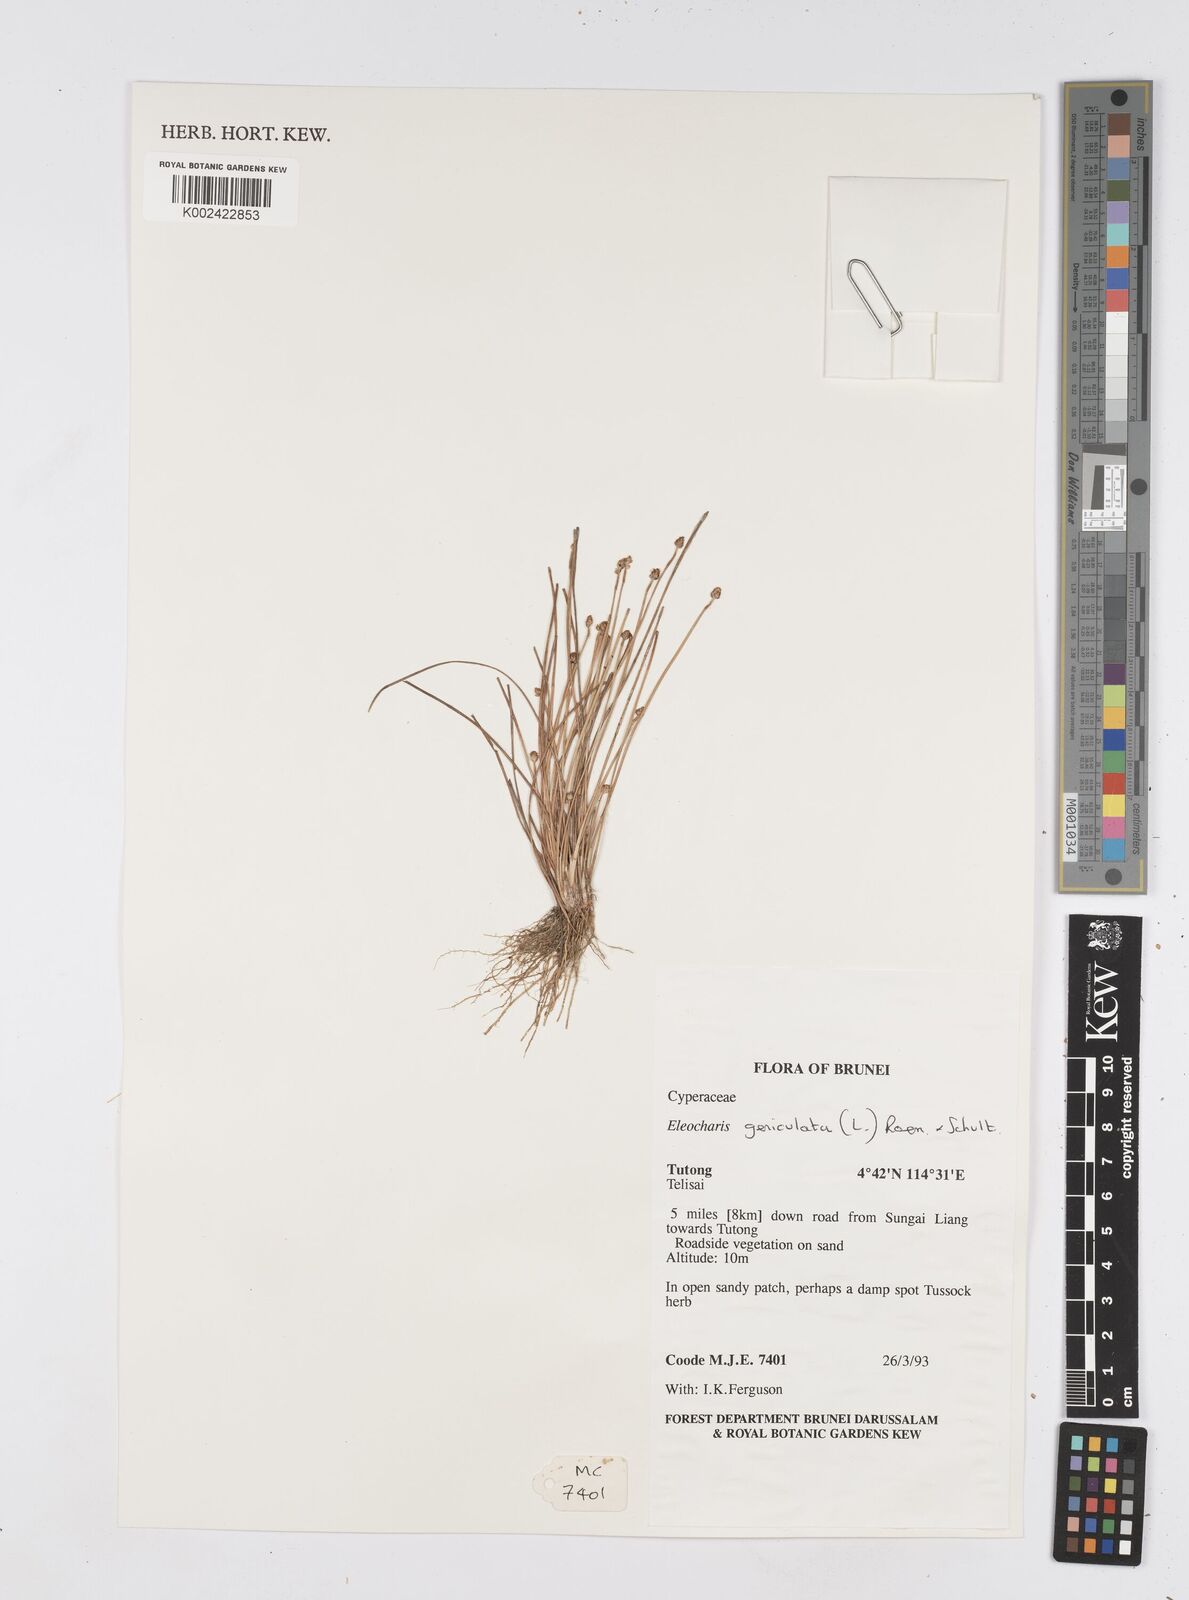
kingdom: Plantae
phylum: Tracheophyta
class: Liliopsida
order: Poales
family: Cyperaceae
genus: Eleocharis
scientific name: Eleocharis geniculata
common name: Canada spikesedge
